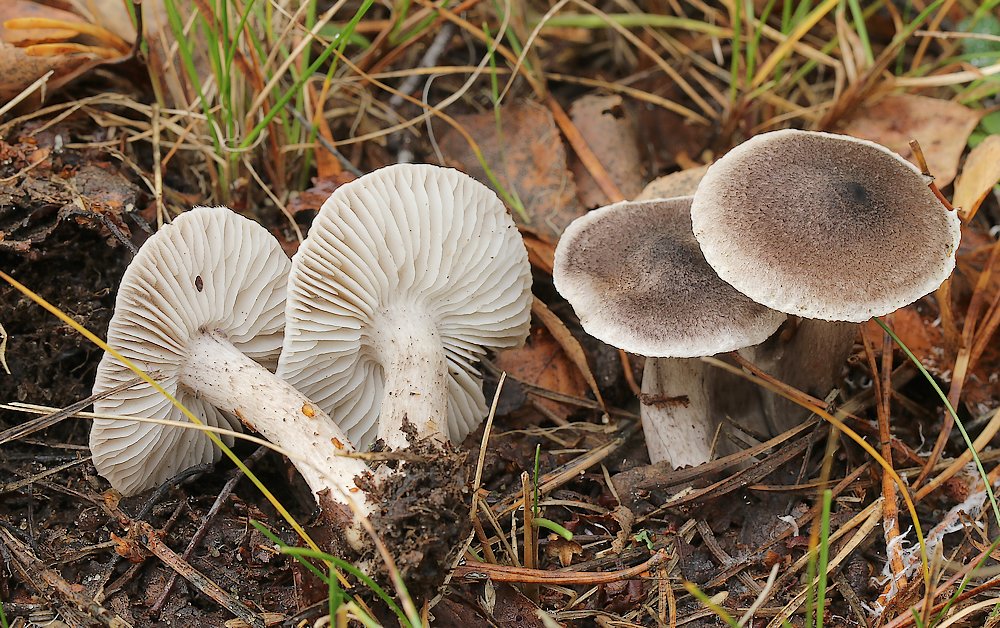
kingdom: Fungi
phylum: Basidiomycota
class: Agaricomycetes
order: Agaricales
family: Tricholomataceae
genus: Tricholoma
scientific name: Tricholoma triste
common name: trist ridderhat
